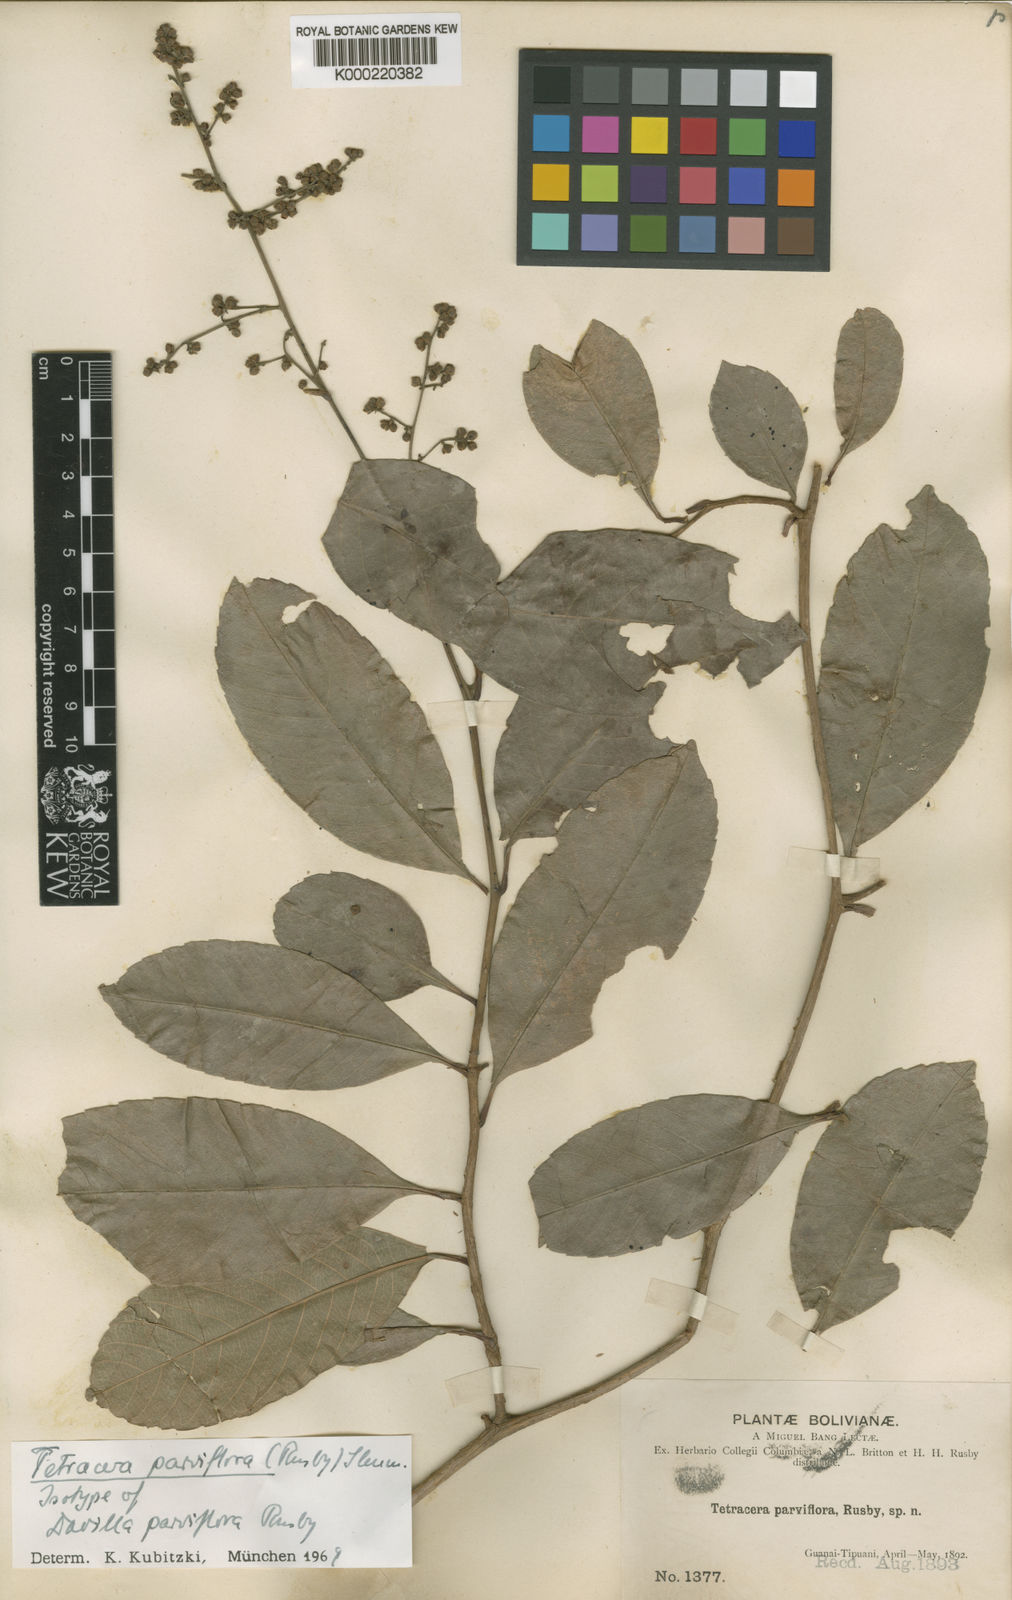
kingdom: Plantae
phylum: Tracheophyta
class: Magnoliopsida
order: Dilleniales
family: Dilleniaceae
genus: Tetracera
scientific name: Tetracera parviflora
